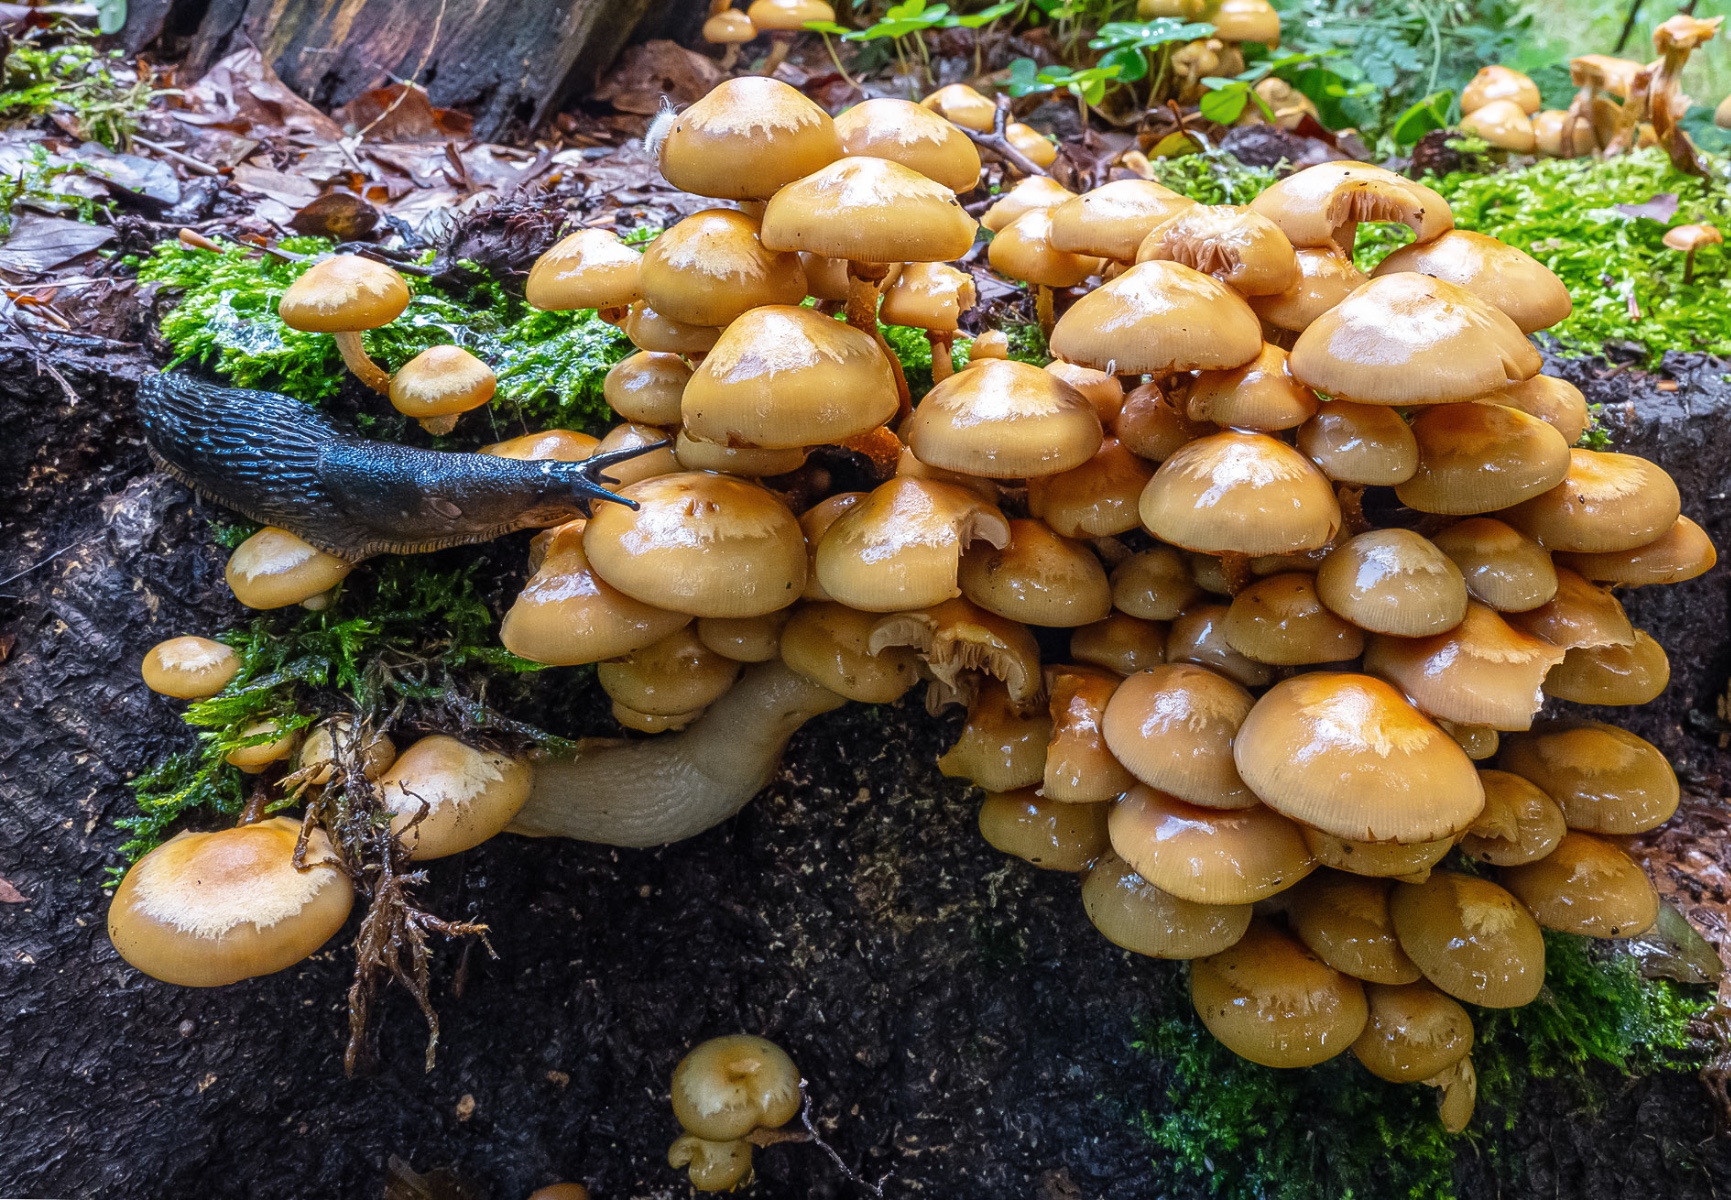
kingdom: Fungi
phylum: Basidiomycota
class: Agaricomycetes
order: Agaricales
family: Strophariaceae
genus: Kuehneromyces
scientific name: Kuehneromyces mutabilis
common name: foranderlig skælhat
